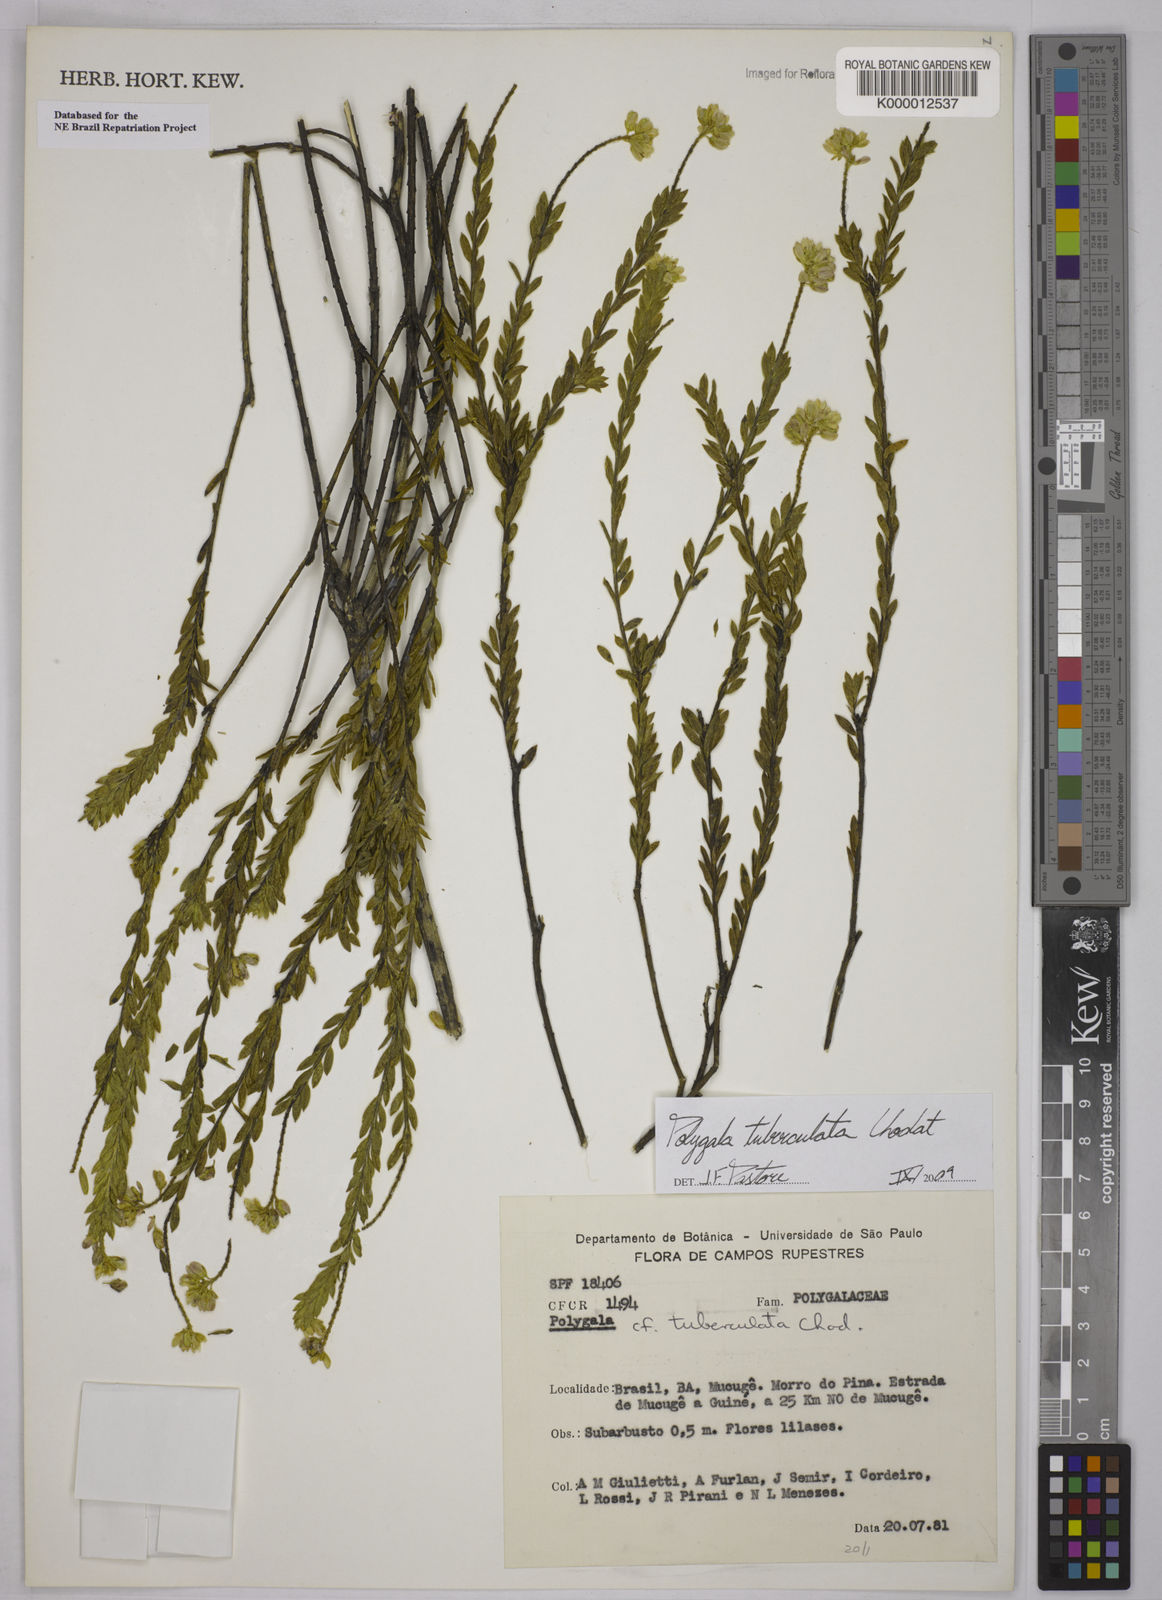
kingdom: Plantae
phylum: Tracheophyta
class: Magnoliopsida
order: Fabales
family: Polygalaceae
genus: Polygala
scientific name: Polygala tuberculata
